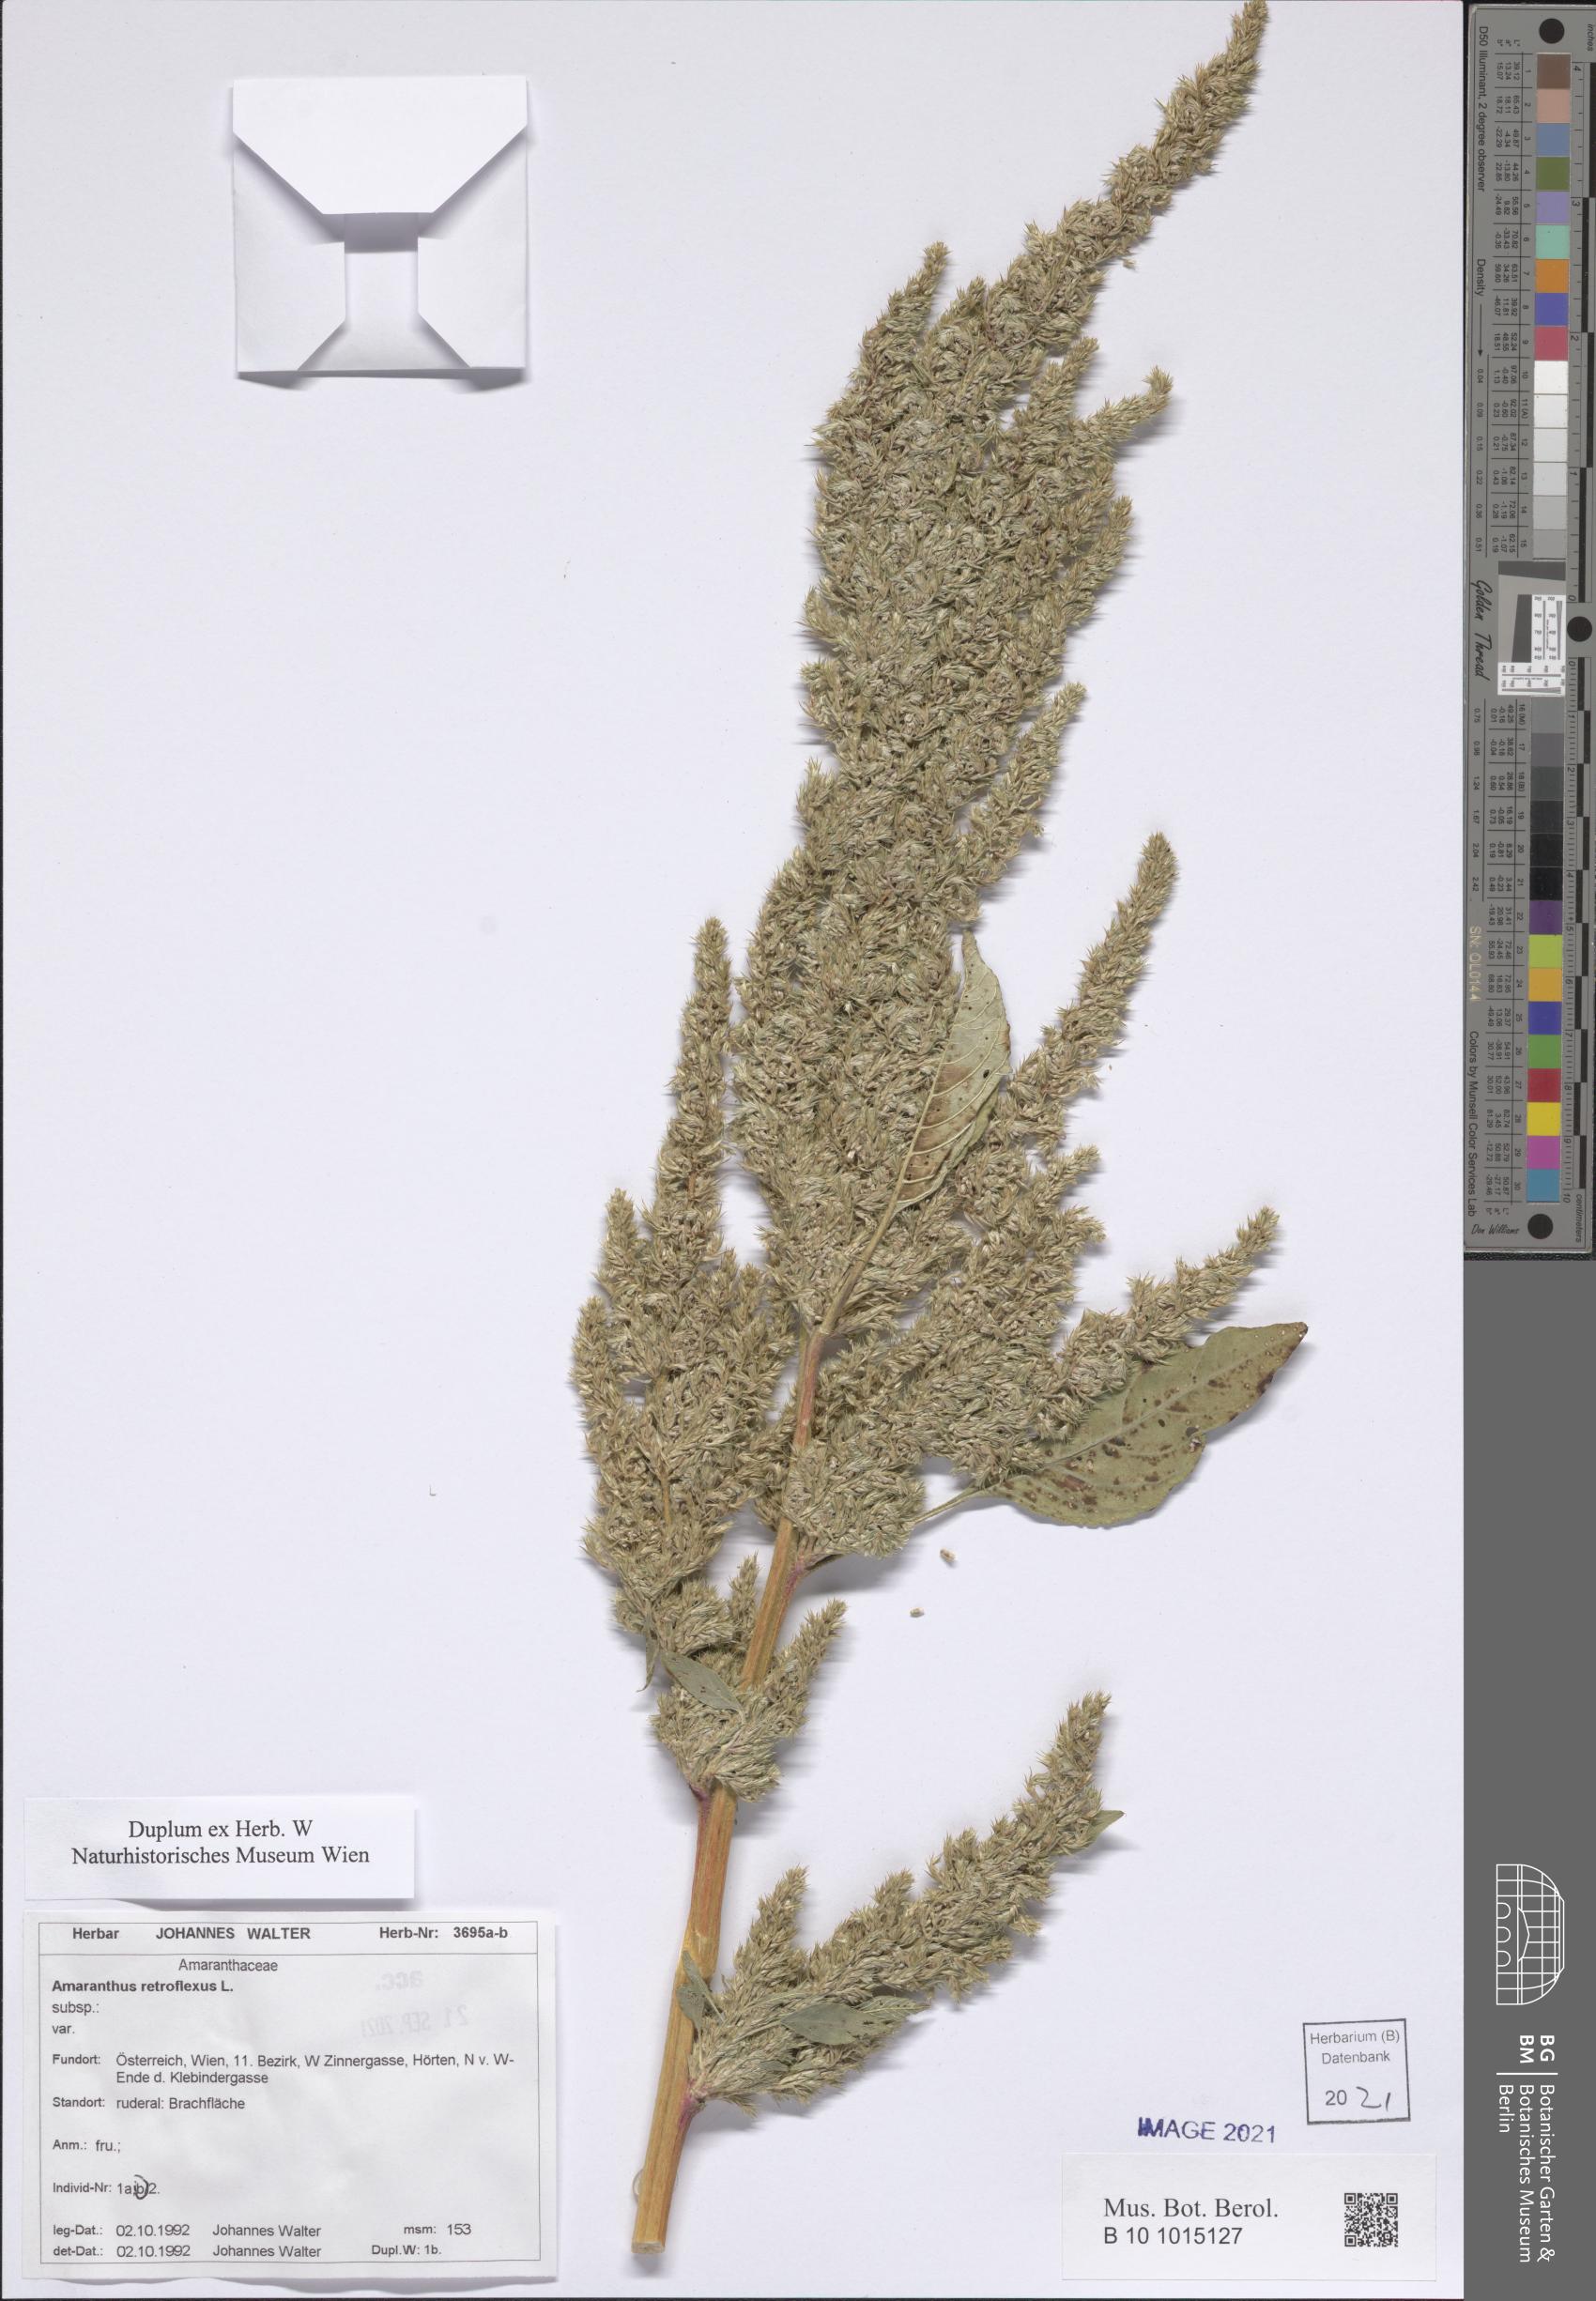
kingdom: Plantae
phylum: Tracheophyta
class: Magnoliopsida
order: Caryophyllales
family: Amaranthaceae
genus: Amaranthus
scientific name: Amaranthus retroflexus
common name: Redroot amaranth
